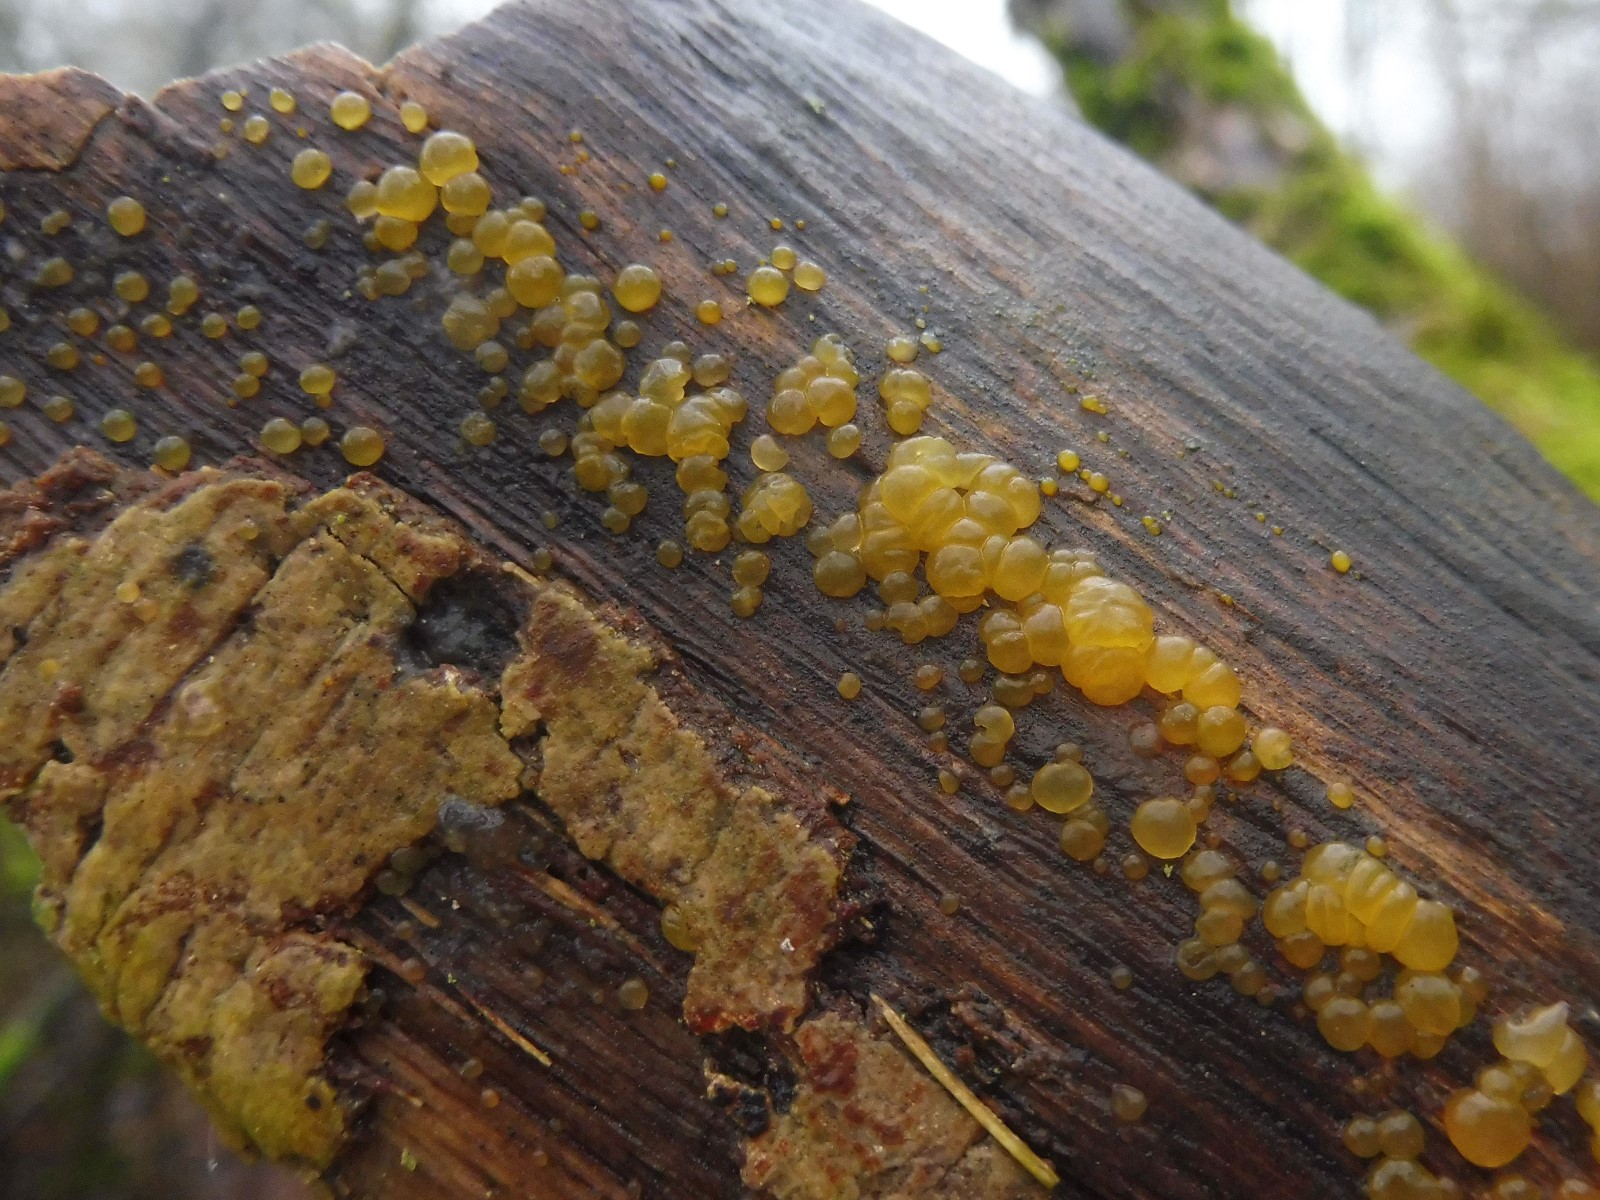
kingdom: Fungi
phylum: Basidiomycota
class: Dacrymycetes
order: Dacrymycetales
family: Dacrymycetaceae
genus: Dacrymyces
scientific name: Dacrymyces lacrymalis
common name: rynket tåresvamp
